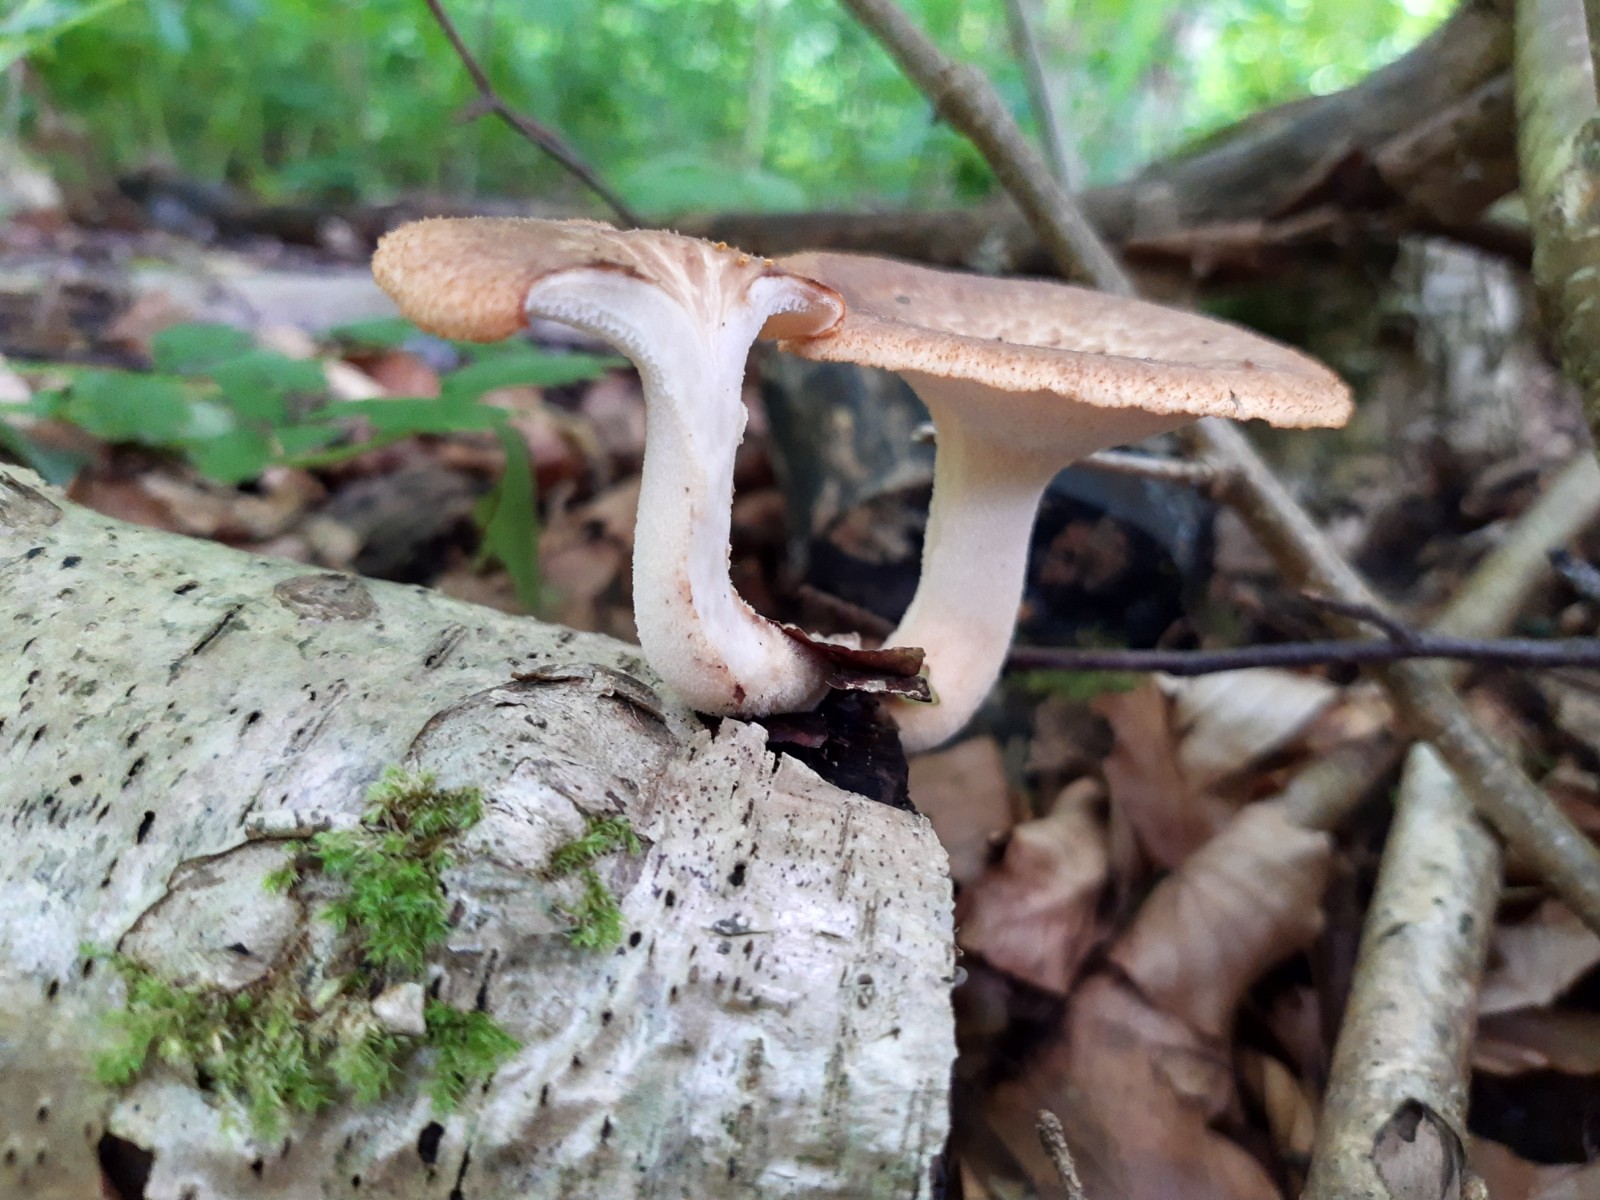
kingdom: Fungi
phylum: Basidiomycota
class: Agaricomycetes
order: Polyporales
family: Polyporaceae
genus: Polyporus
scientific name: Polyporus tuberaster
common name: knoldet stilkporesvamp
